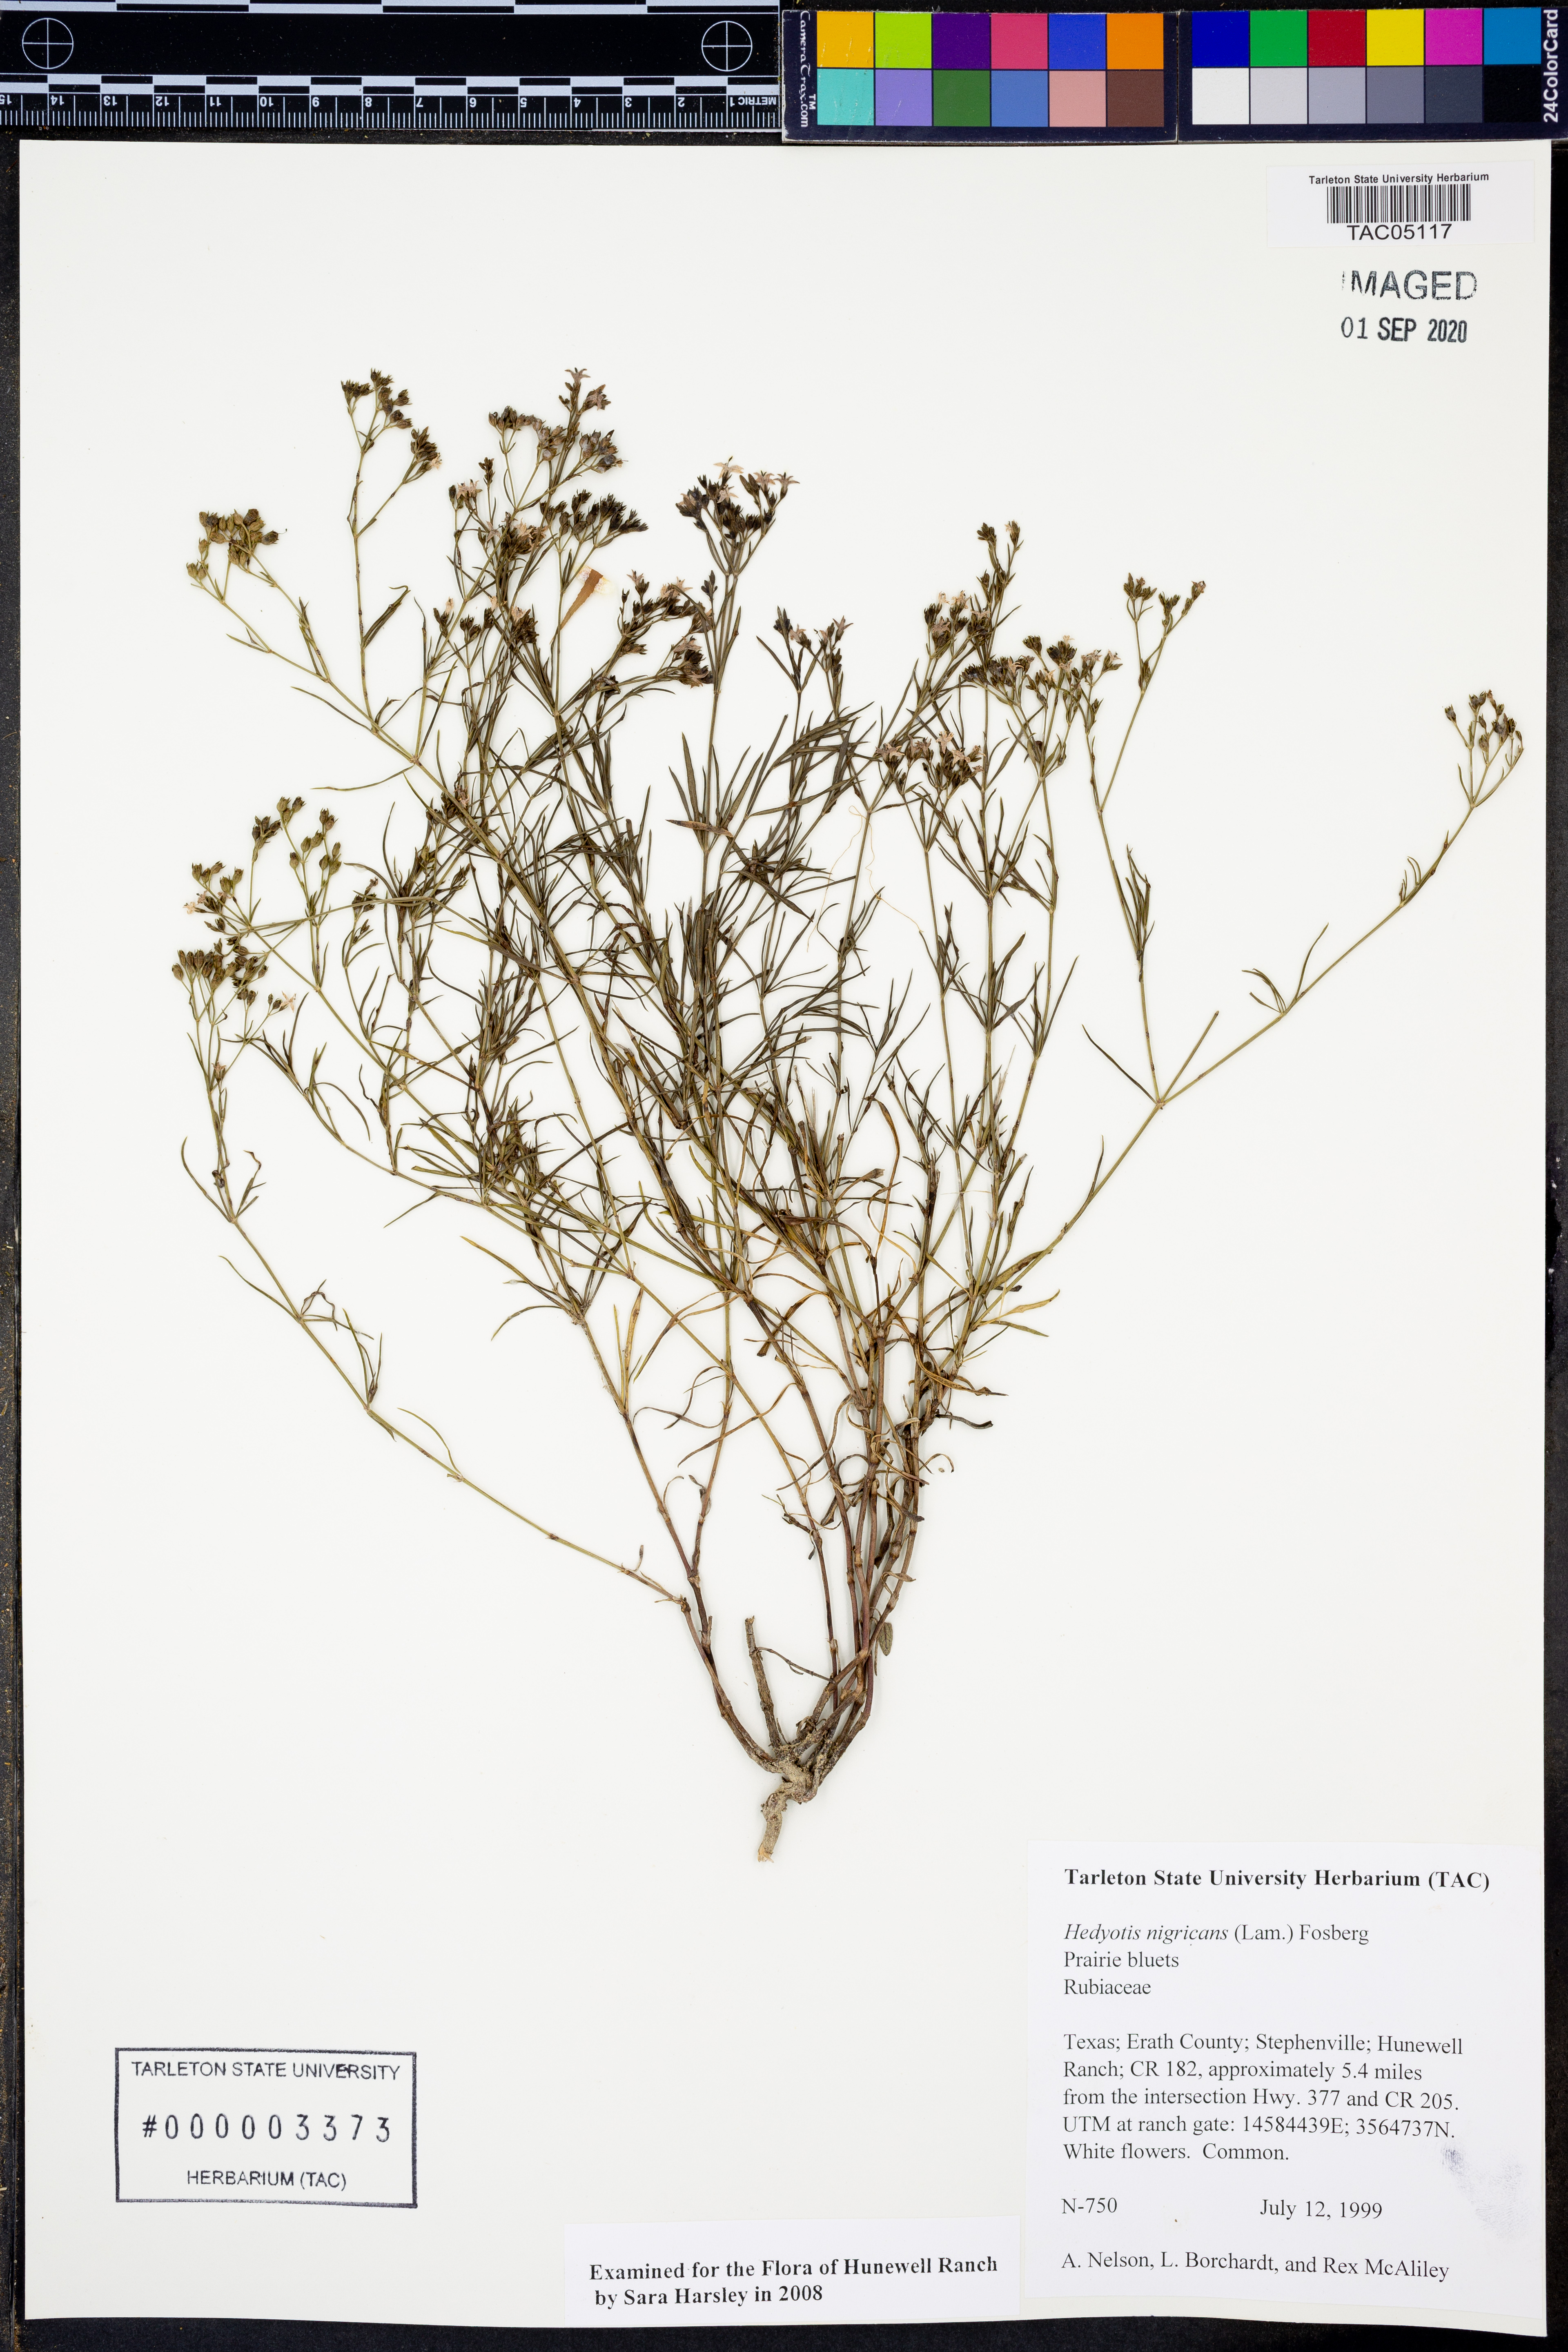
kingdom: Plantae
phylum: Tracheophyta
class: Magnoliopsida
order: Gentianales
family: Rubiaceae
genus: Stenaria
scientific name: Stenaria nigricans
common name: Diamondflowers
